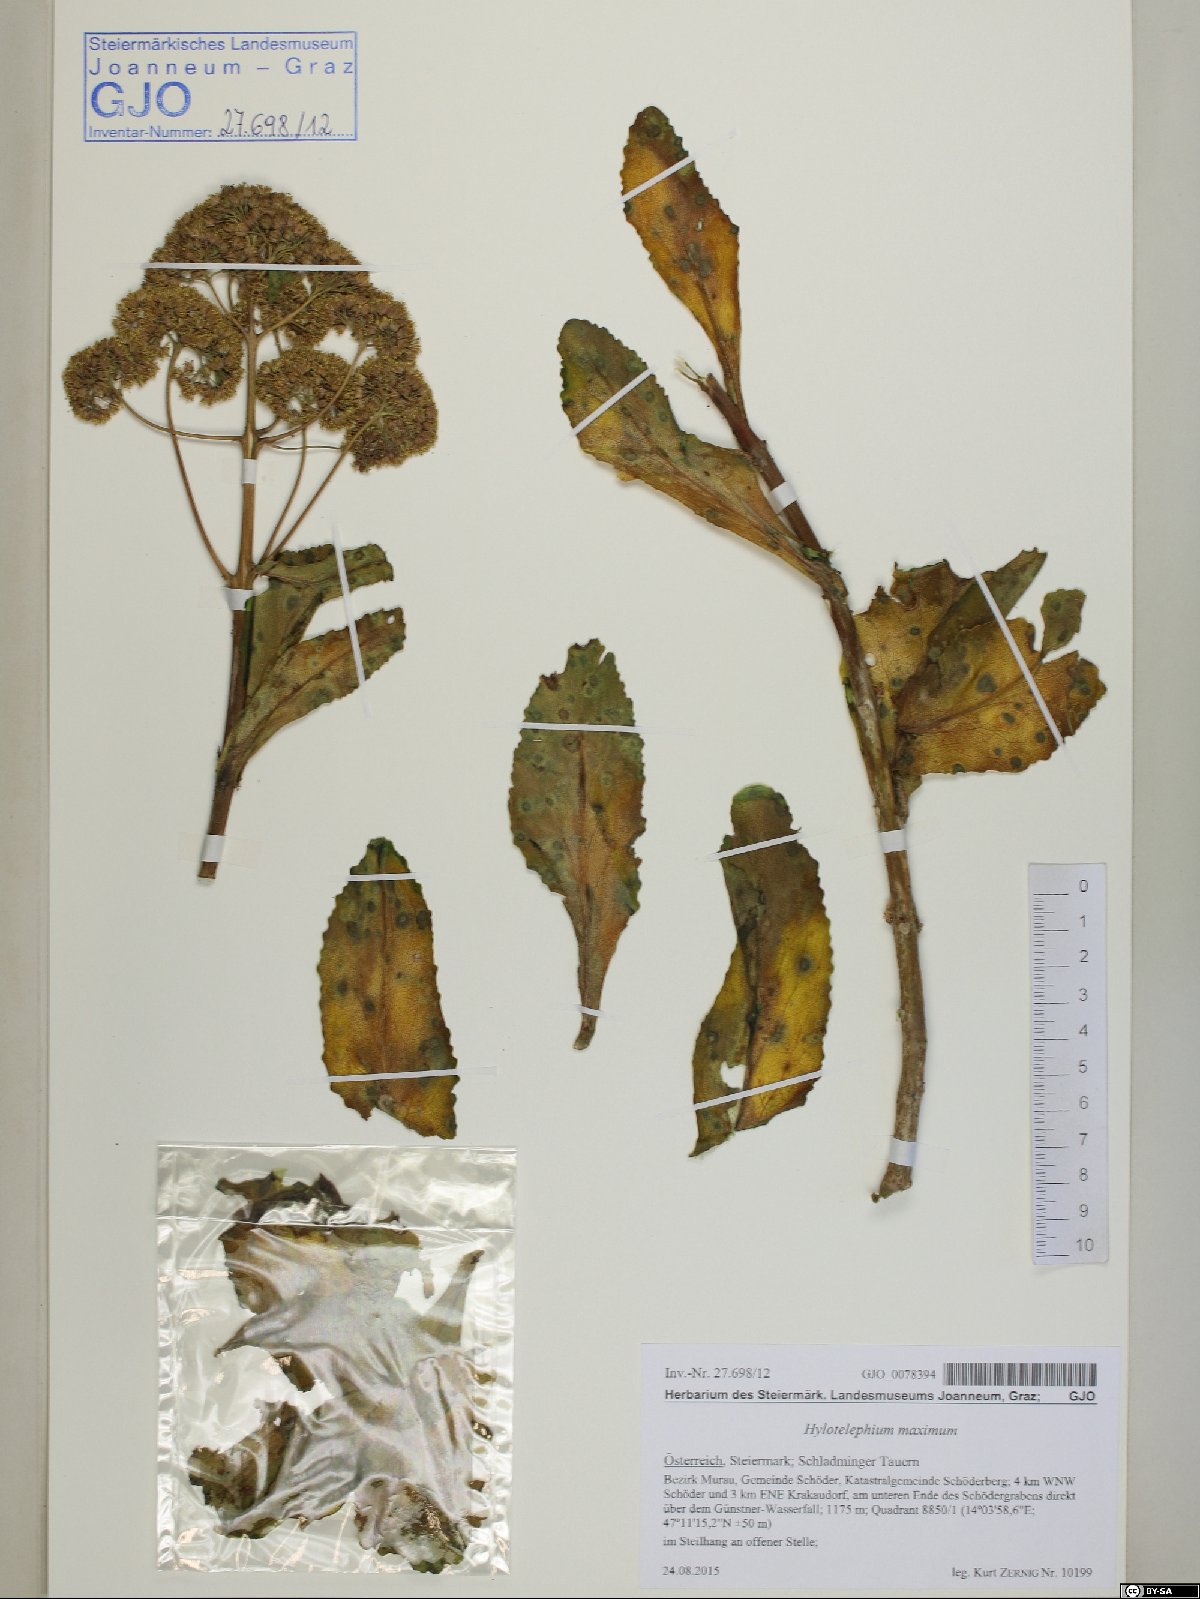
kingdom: Plantae
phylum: Tracheophyta
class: Magnoliopsida
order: Saxifragales
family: Crassulaceae
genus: Hylotelephium
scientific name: Hylotelephium maximum
